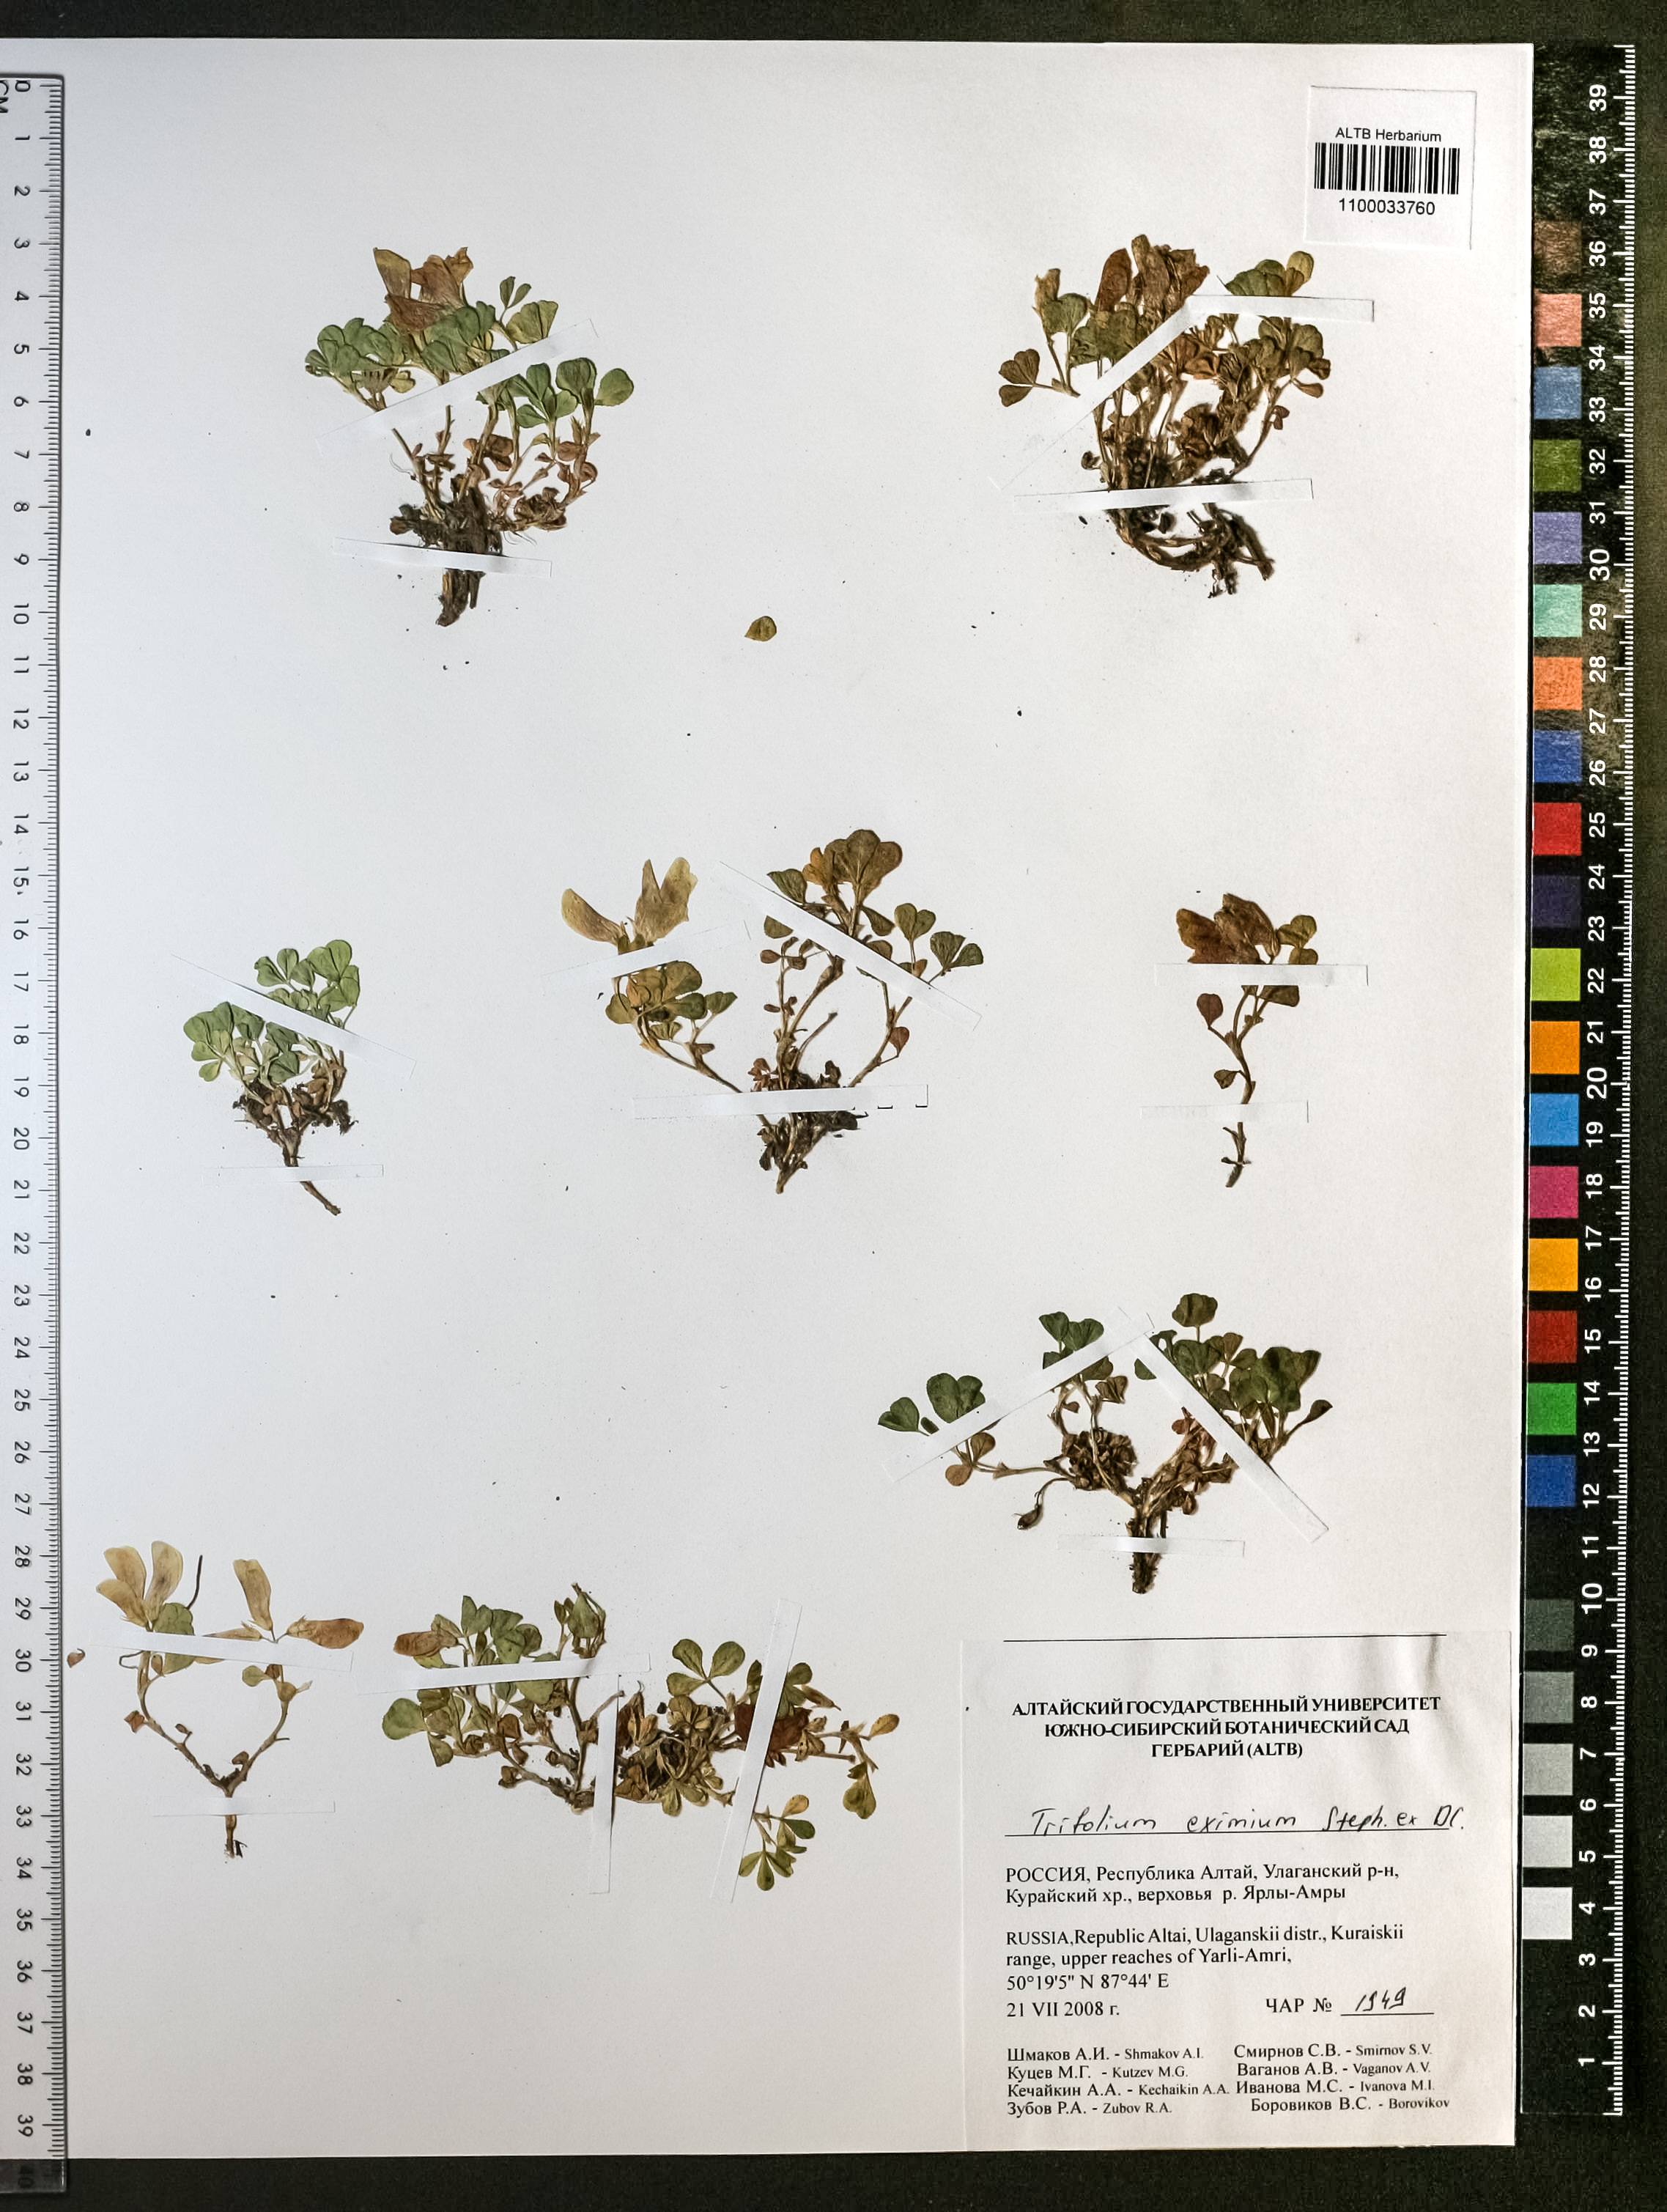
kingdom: Plantae
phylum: Tracheophyta
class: Magnoliopsida
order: Fabales
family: Fabaceae
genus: Trifolium
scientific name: Trifolium eximium
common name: Excellent clover
